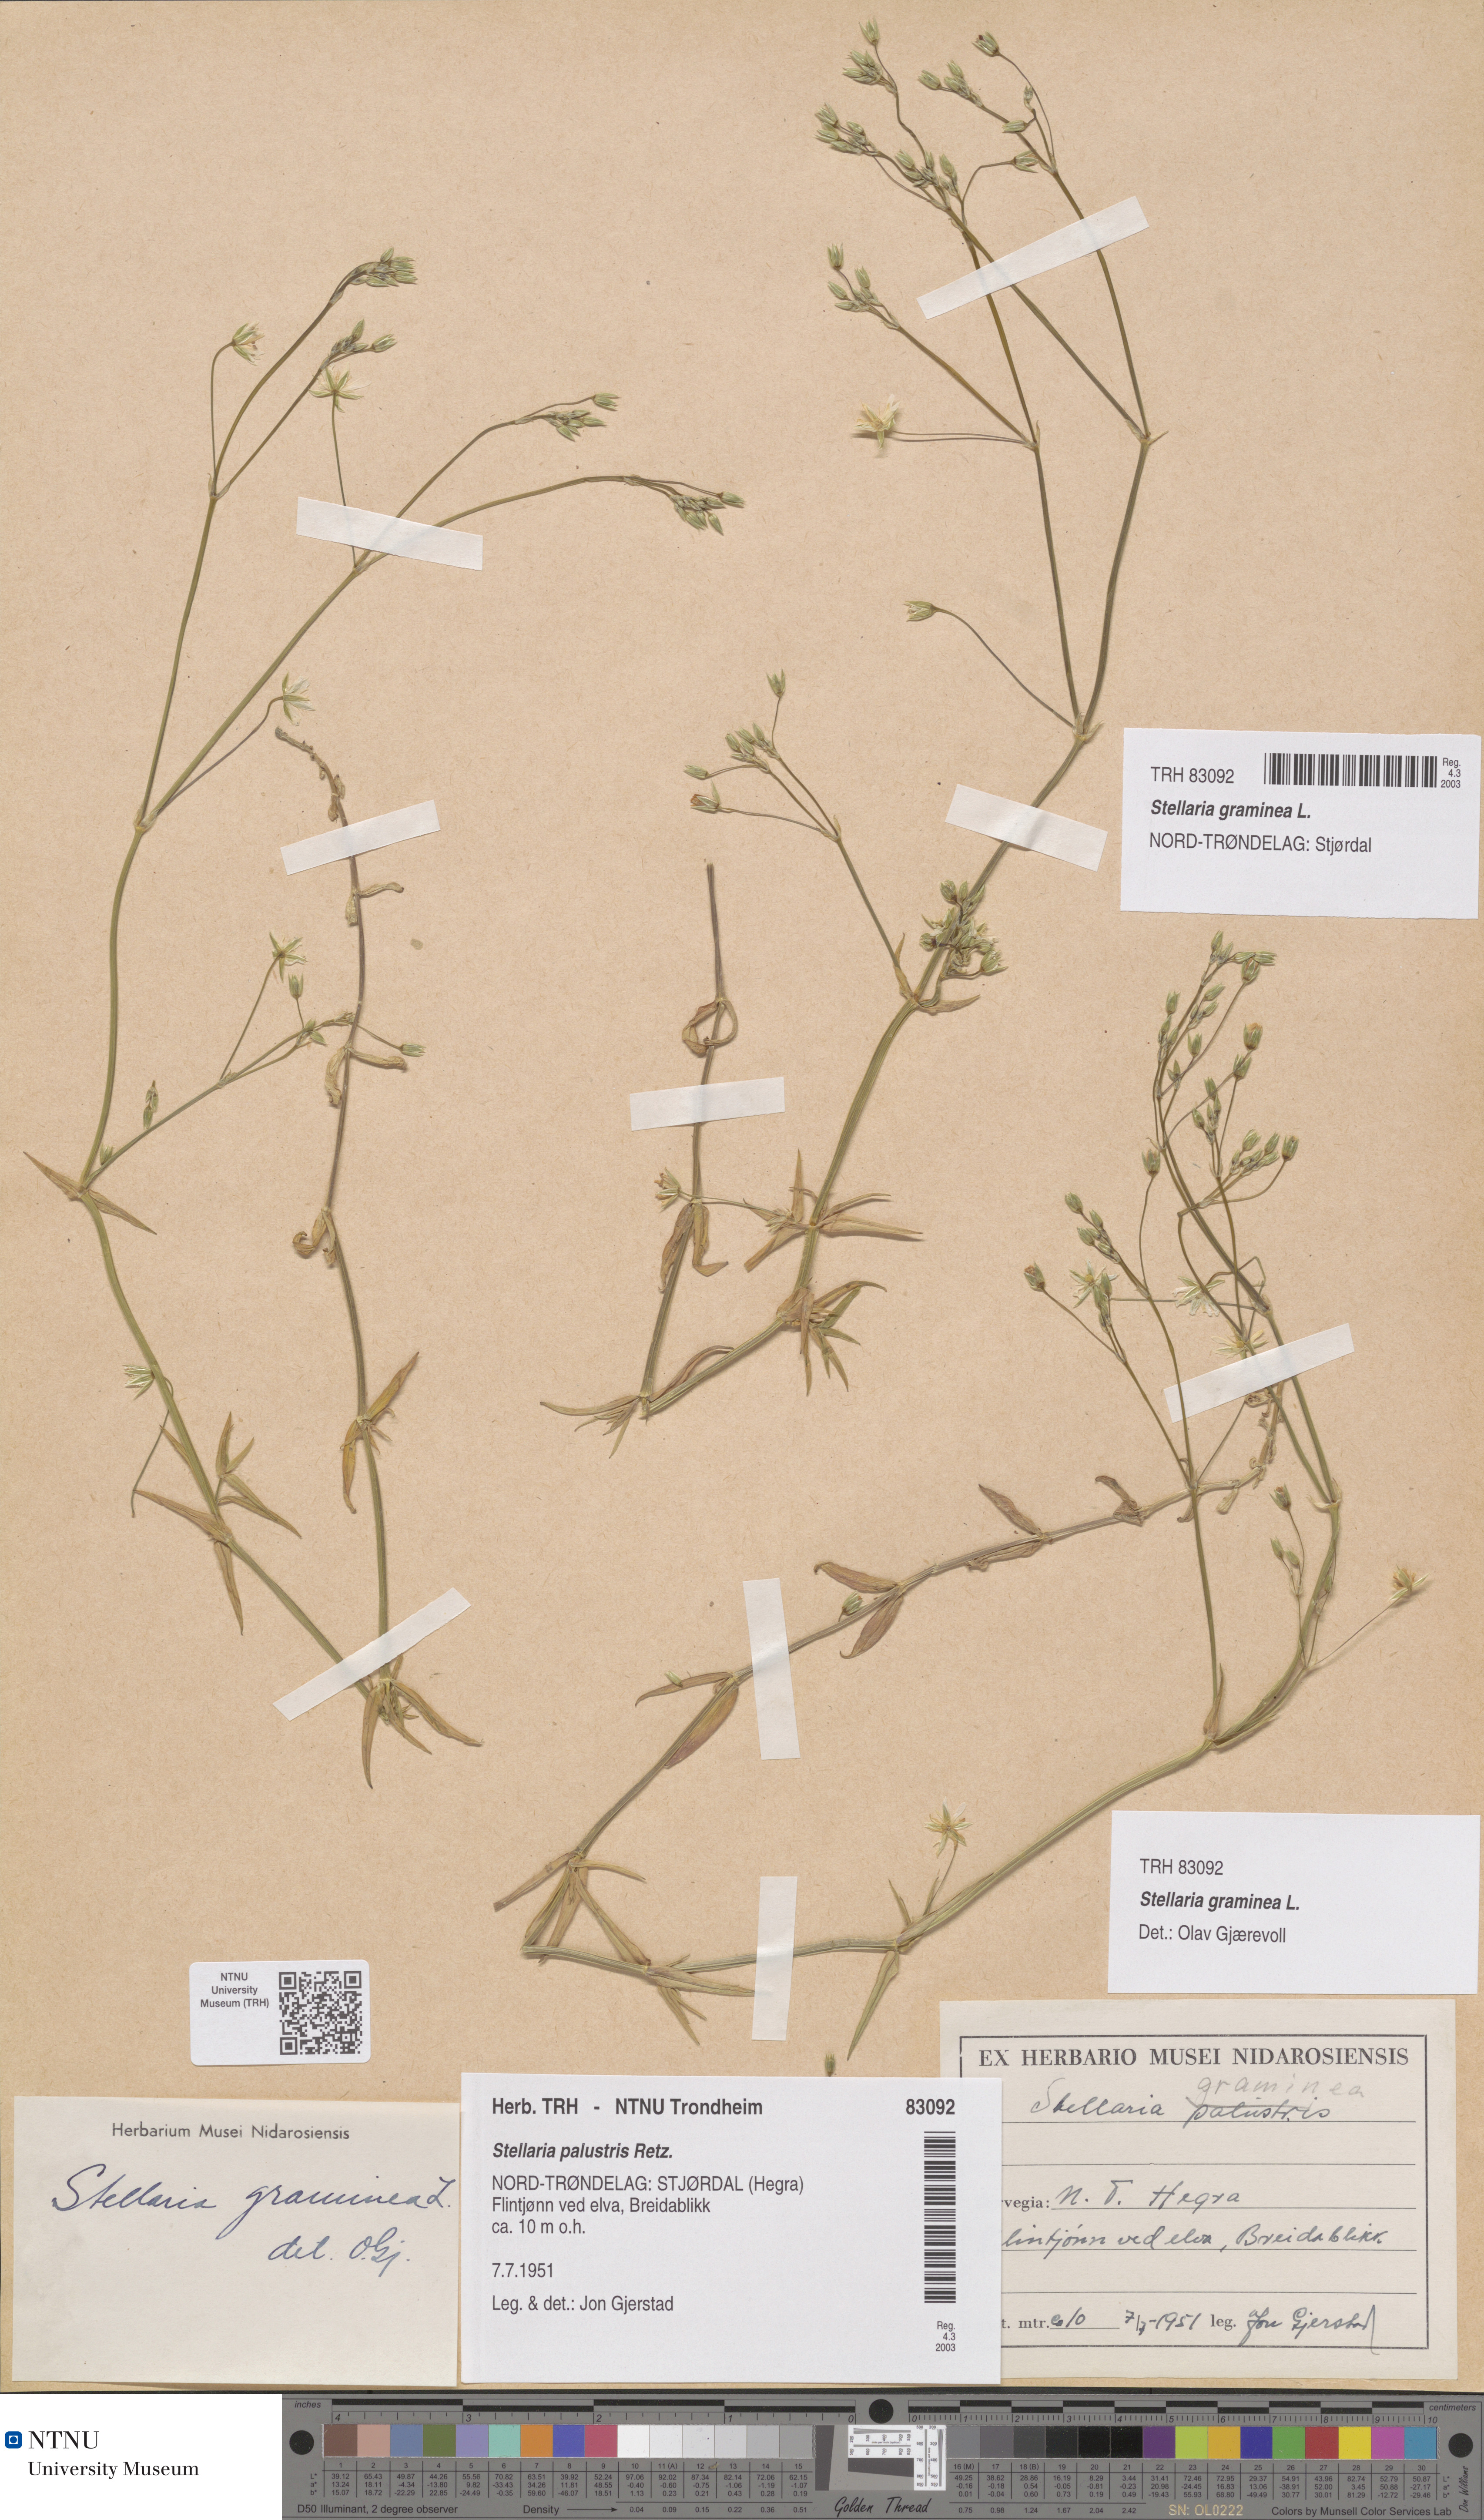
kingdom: Plantae
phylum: Tracheophyta
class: Magnoliopsida
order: Caryophyllales
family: Caryophyllaceae
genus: Stellaria
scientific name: Stellaria graminea
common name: Grass-like starwort
